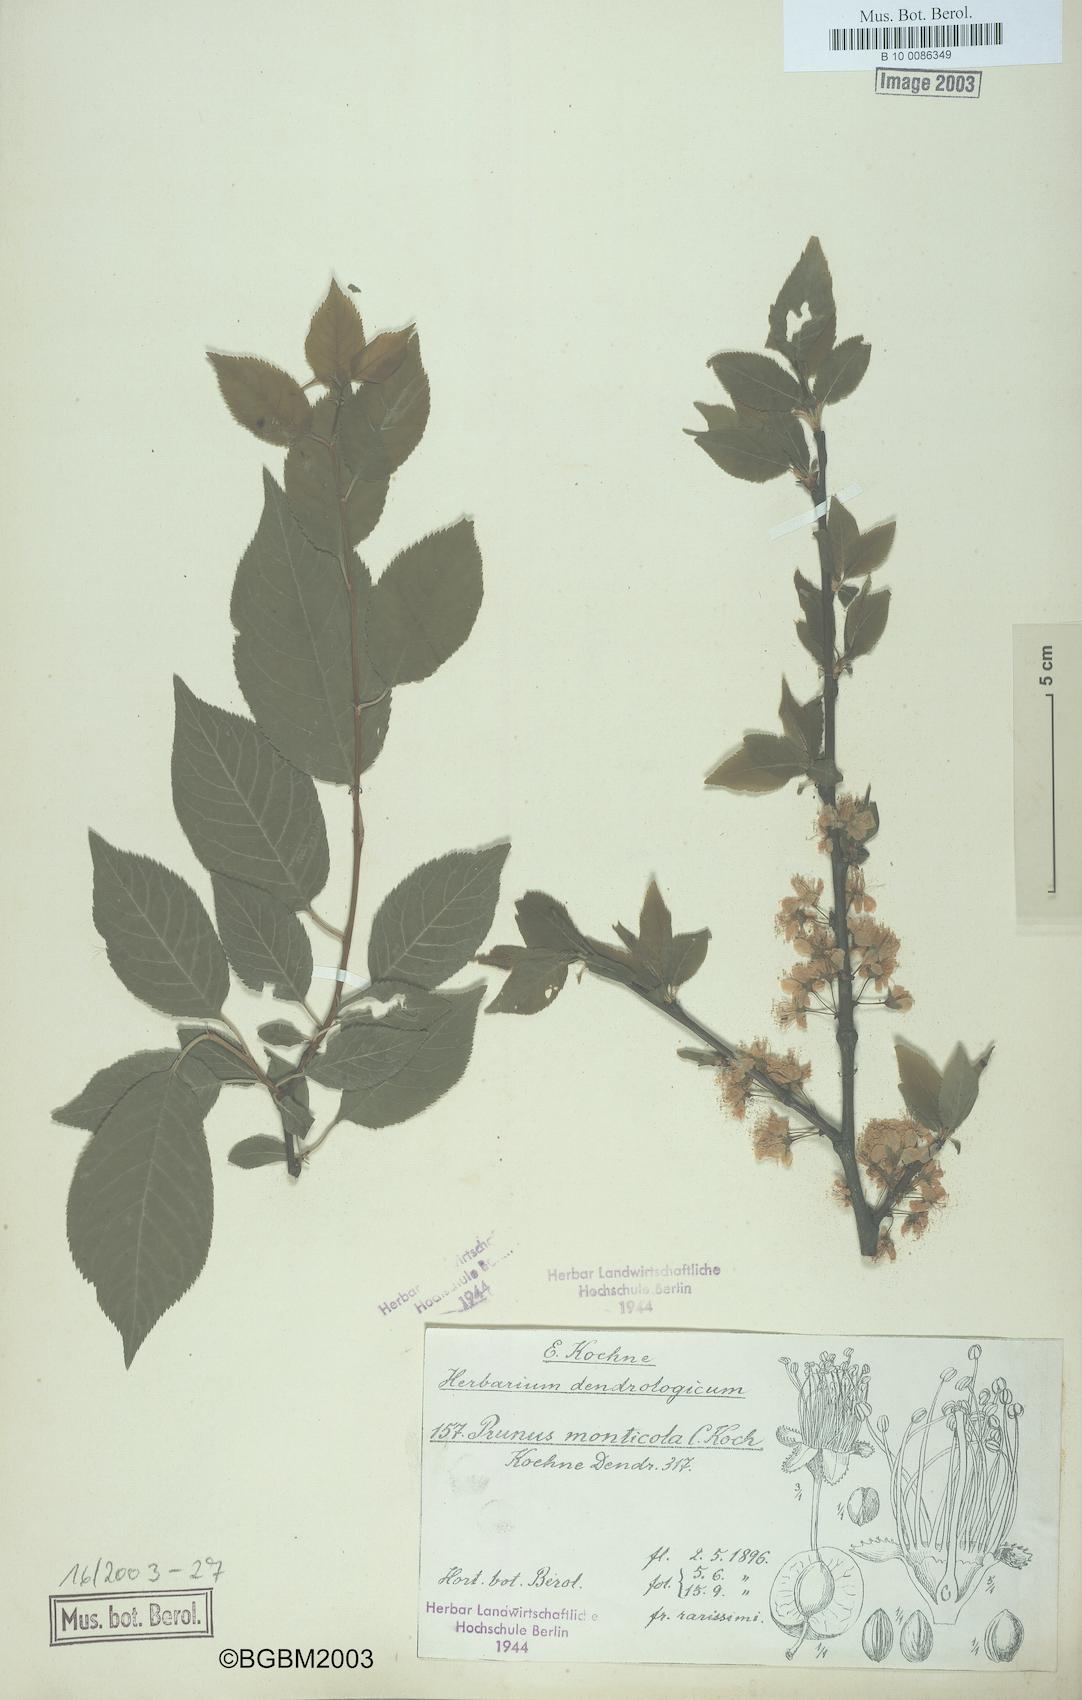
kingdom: Plantae
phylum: Tracheophyta
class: Magnoliopsida
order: Rosales
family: Rosaceae
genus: Prunus
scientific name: Prunus
